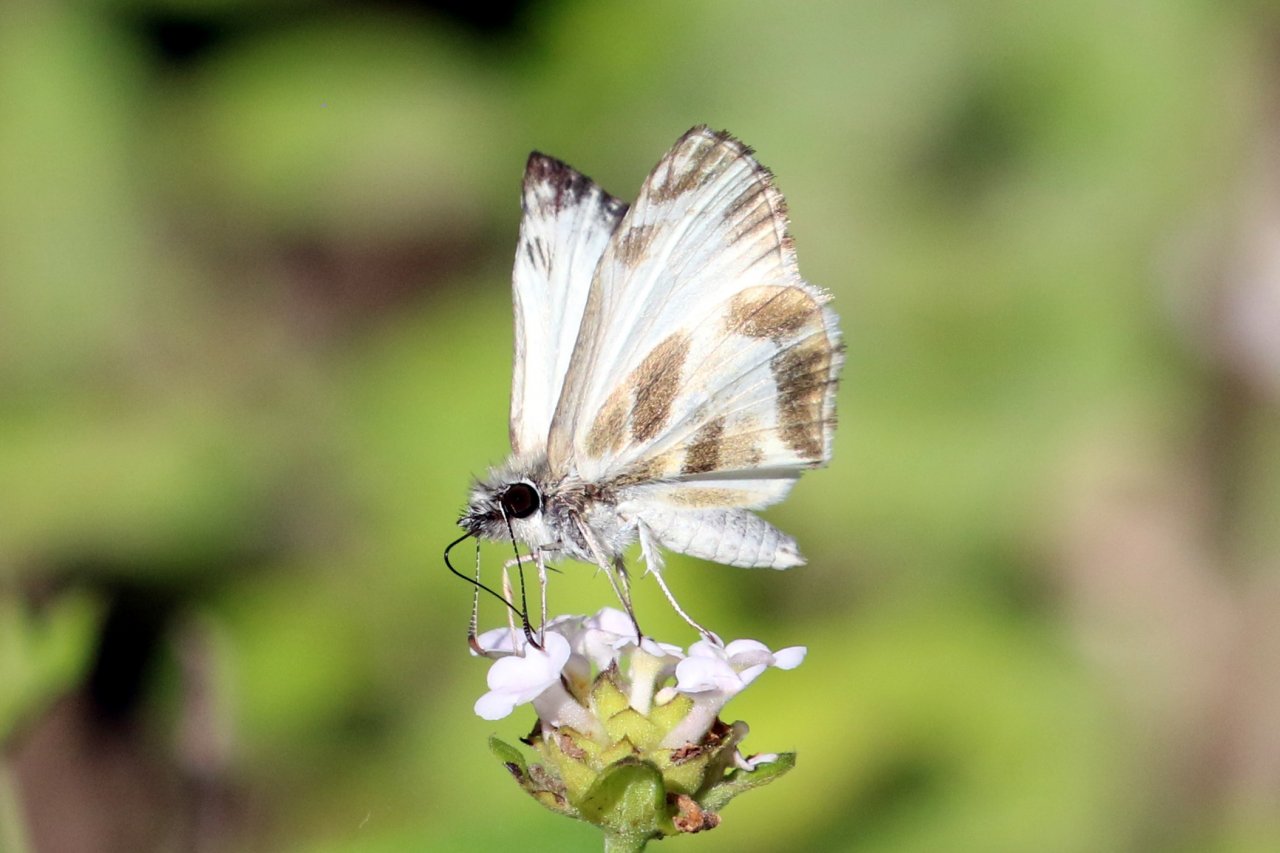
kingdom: Animalia
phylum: Arthropoda
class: Insecta
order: Lepidoptera
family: Hesperiidae
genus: Heliopetes
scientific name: Heliopetes macaira
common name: Turk's-cap White-Skipper
